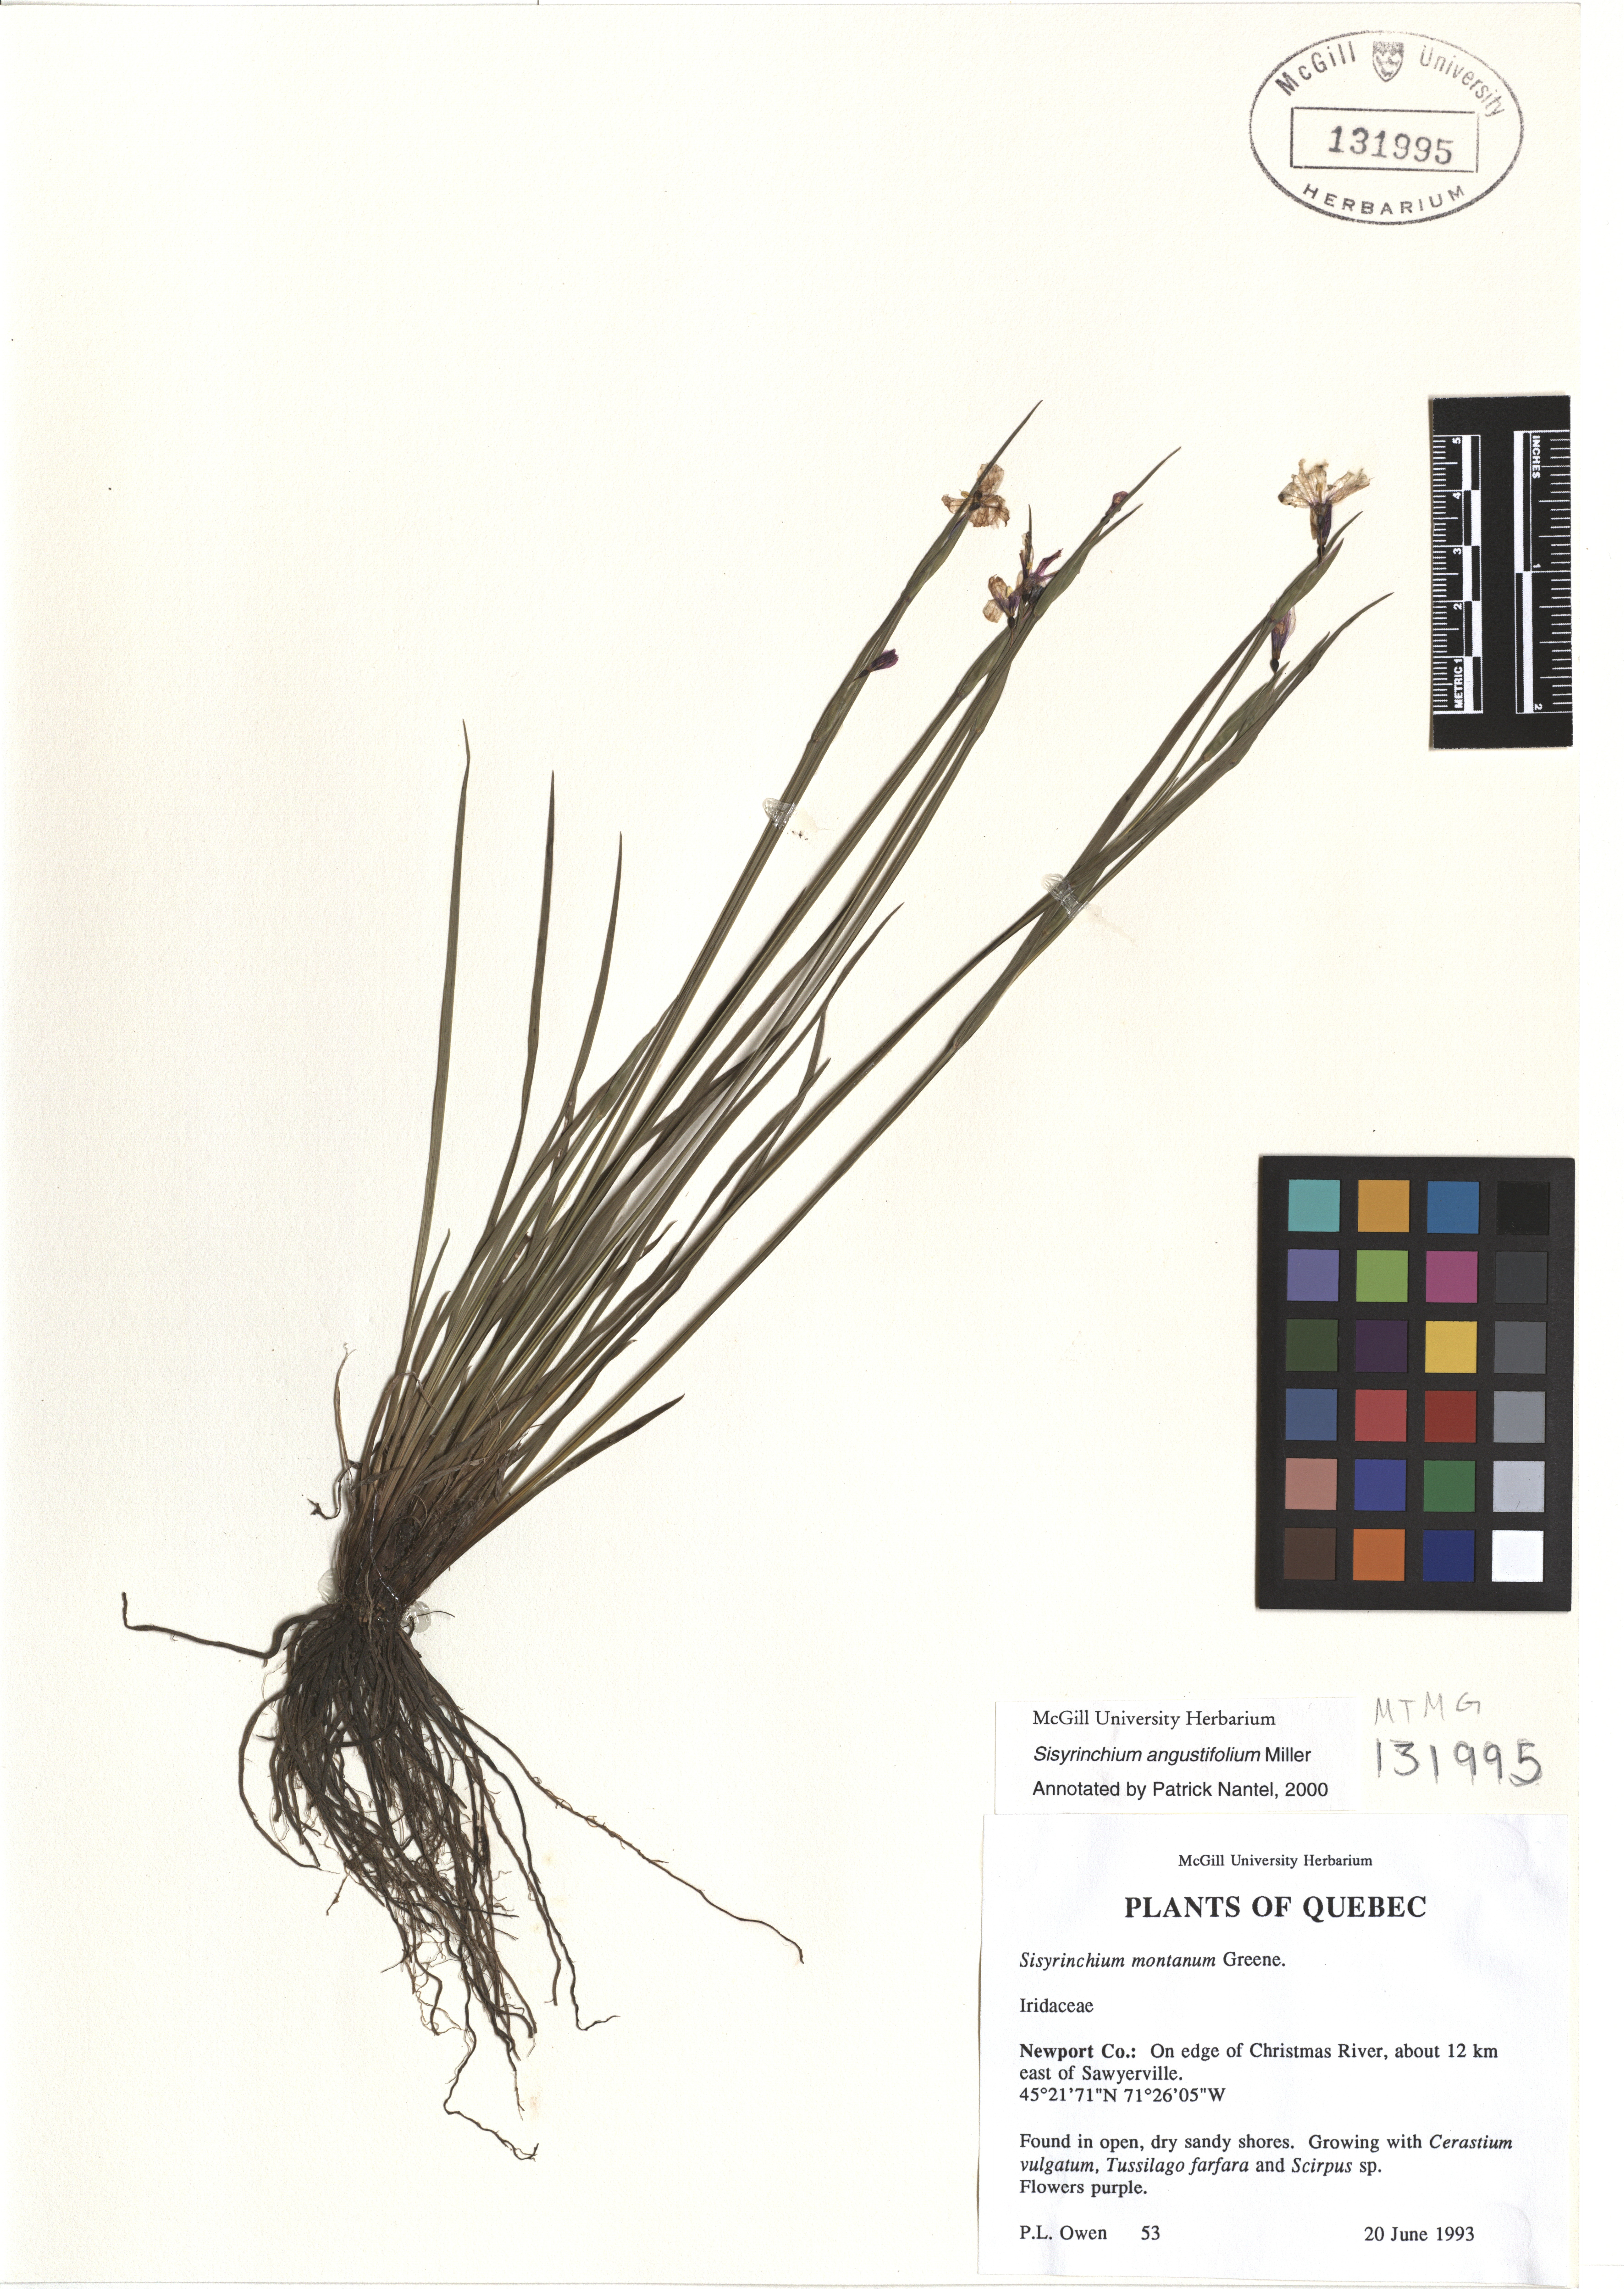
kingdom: Plantae
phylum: Tracheophyta
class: Liliopsida
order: Asparagales
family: Iridaceae
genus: Sisyrinchium
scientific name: Sisyrinchium angustifolium
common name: Narrow-leaf blue-eyed-grass
